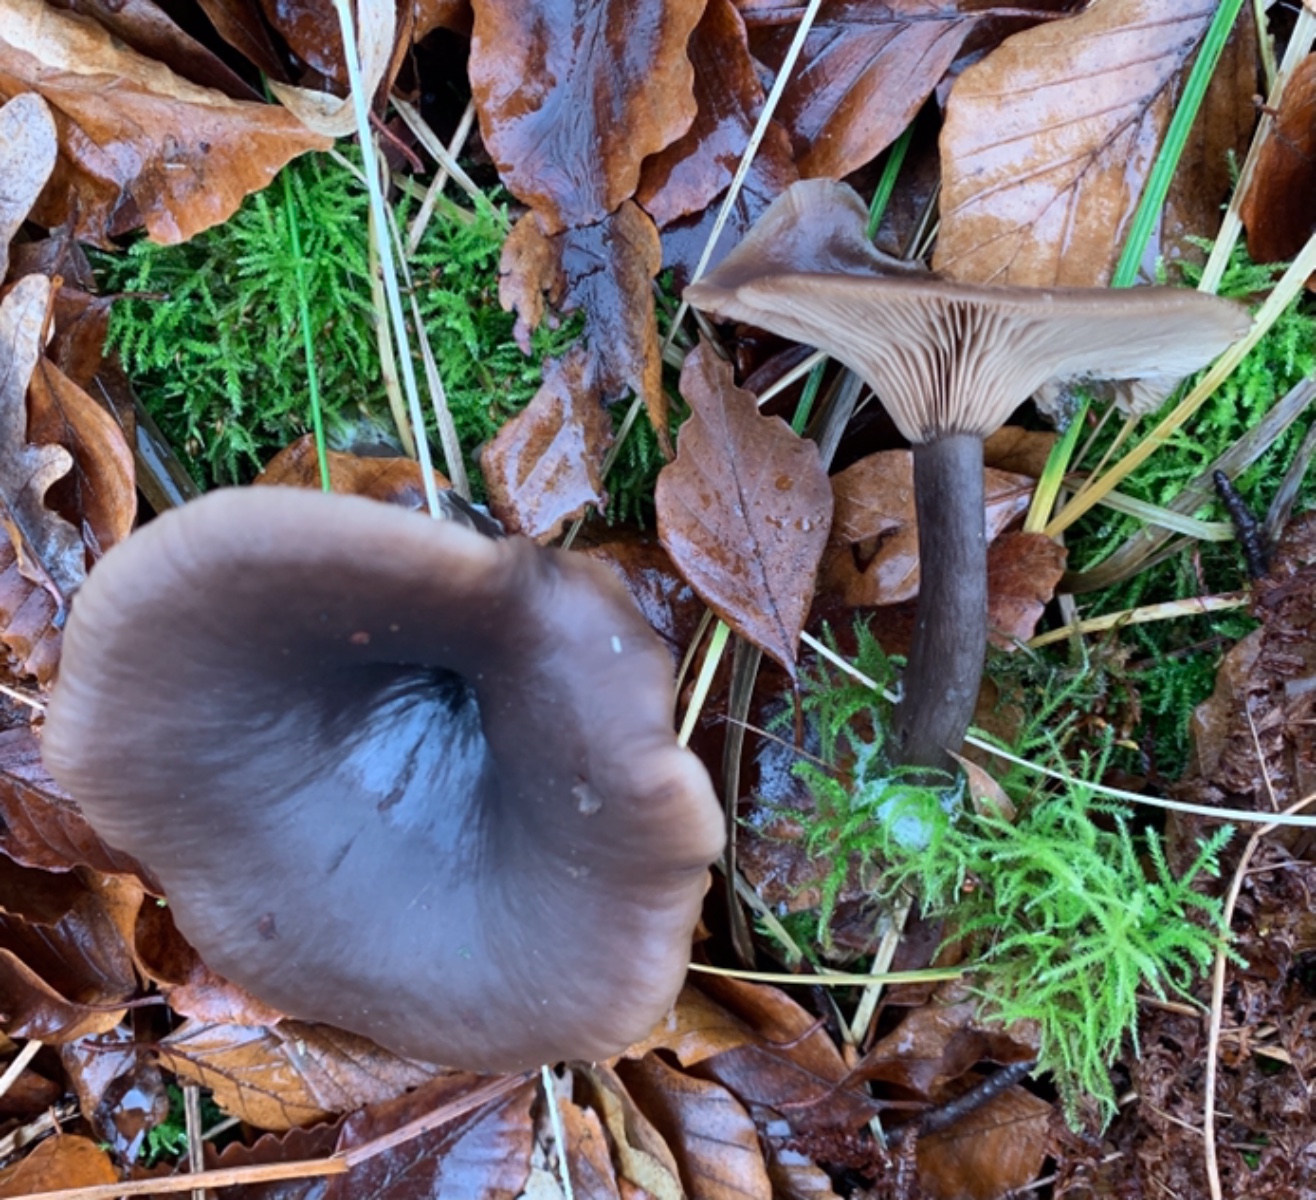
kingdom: Fungi
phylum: Basidiomycota
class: Agaricomycetes
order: Agaricales
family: Pseudoclitocybaceae
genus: Pseudoclitocybe
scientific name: Pseudoclitocybe cyathiformis
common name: almindelig bægertragthat
